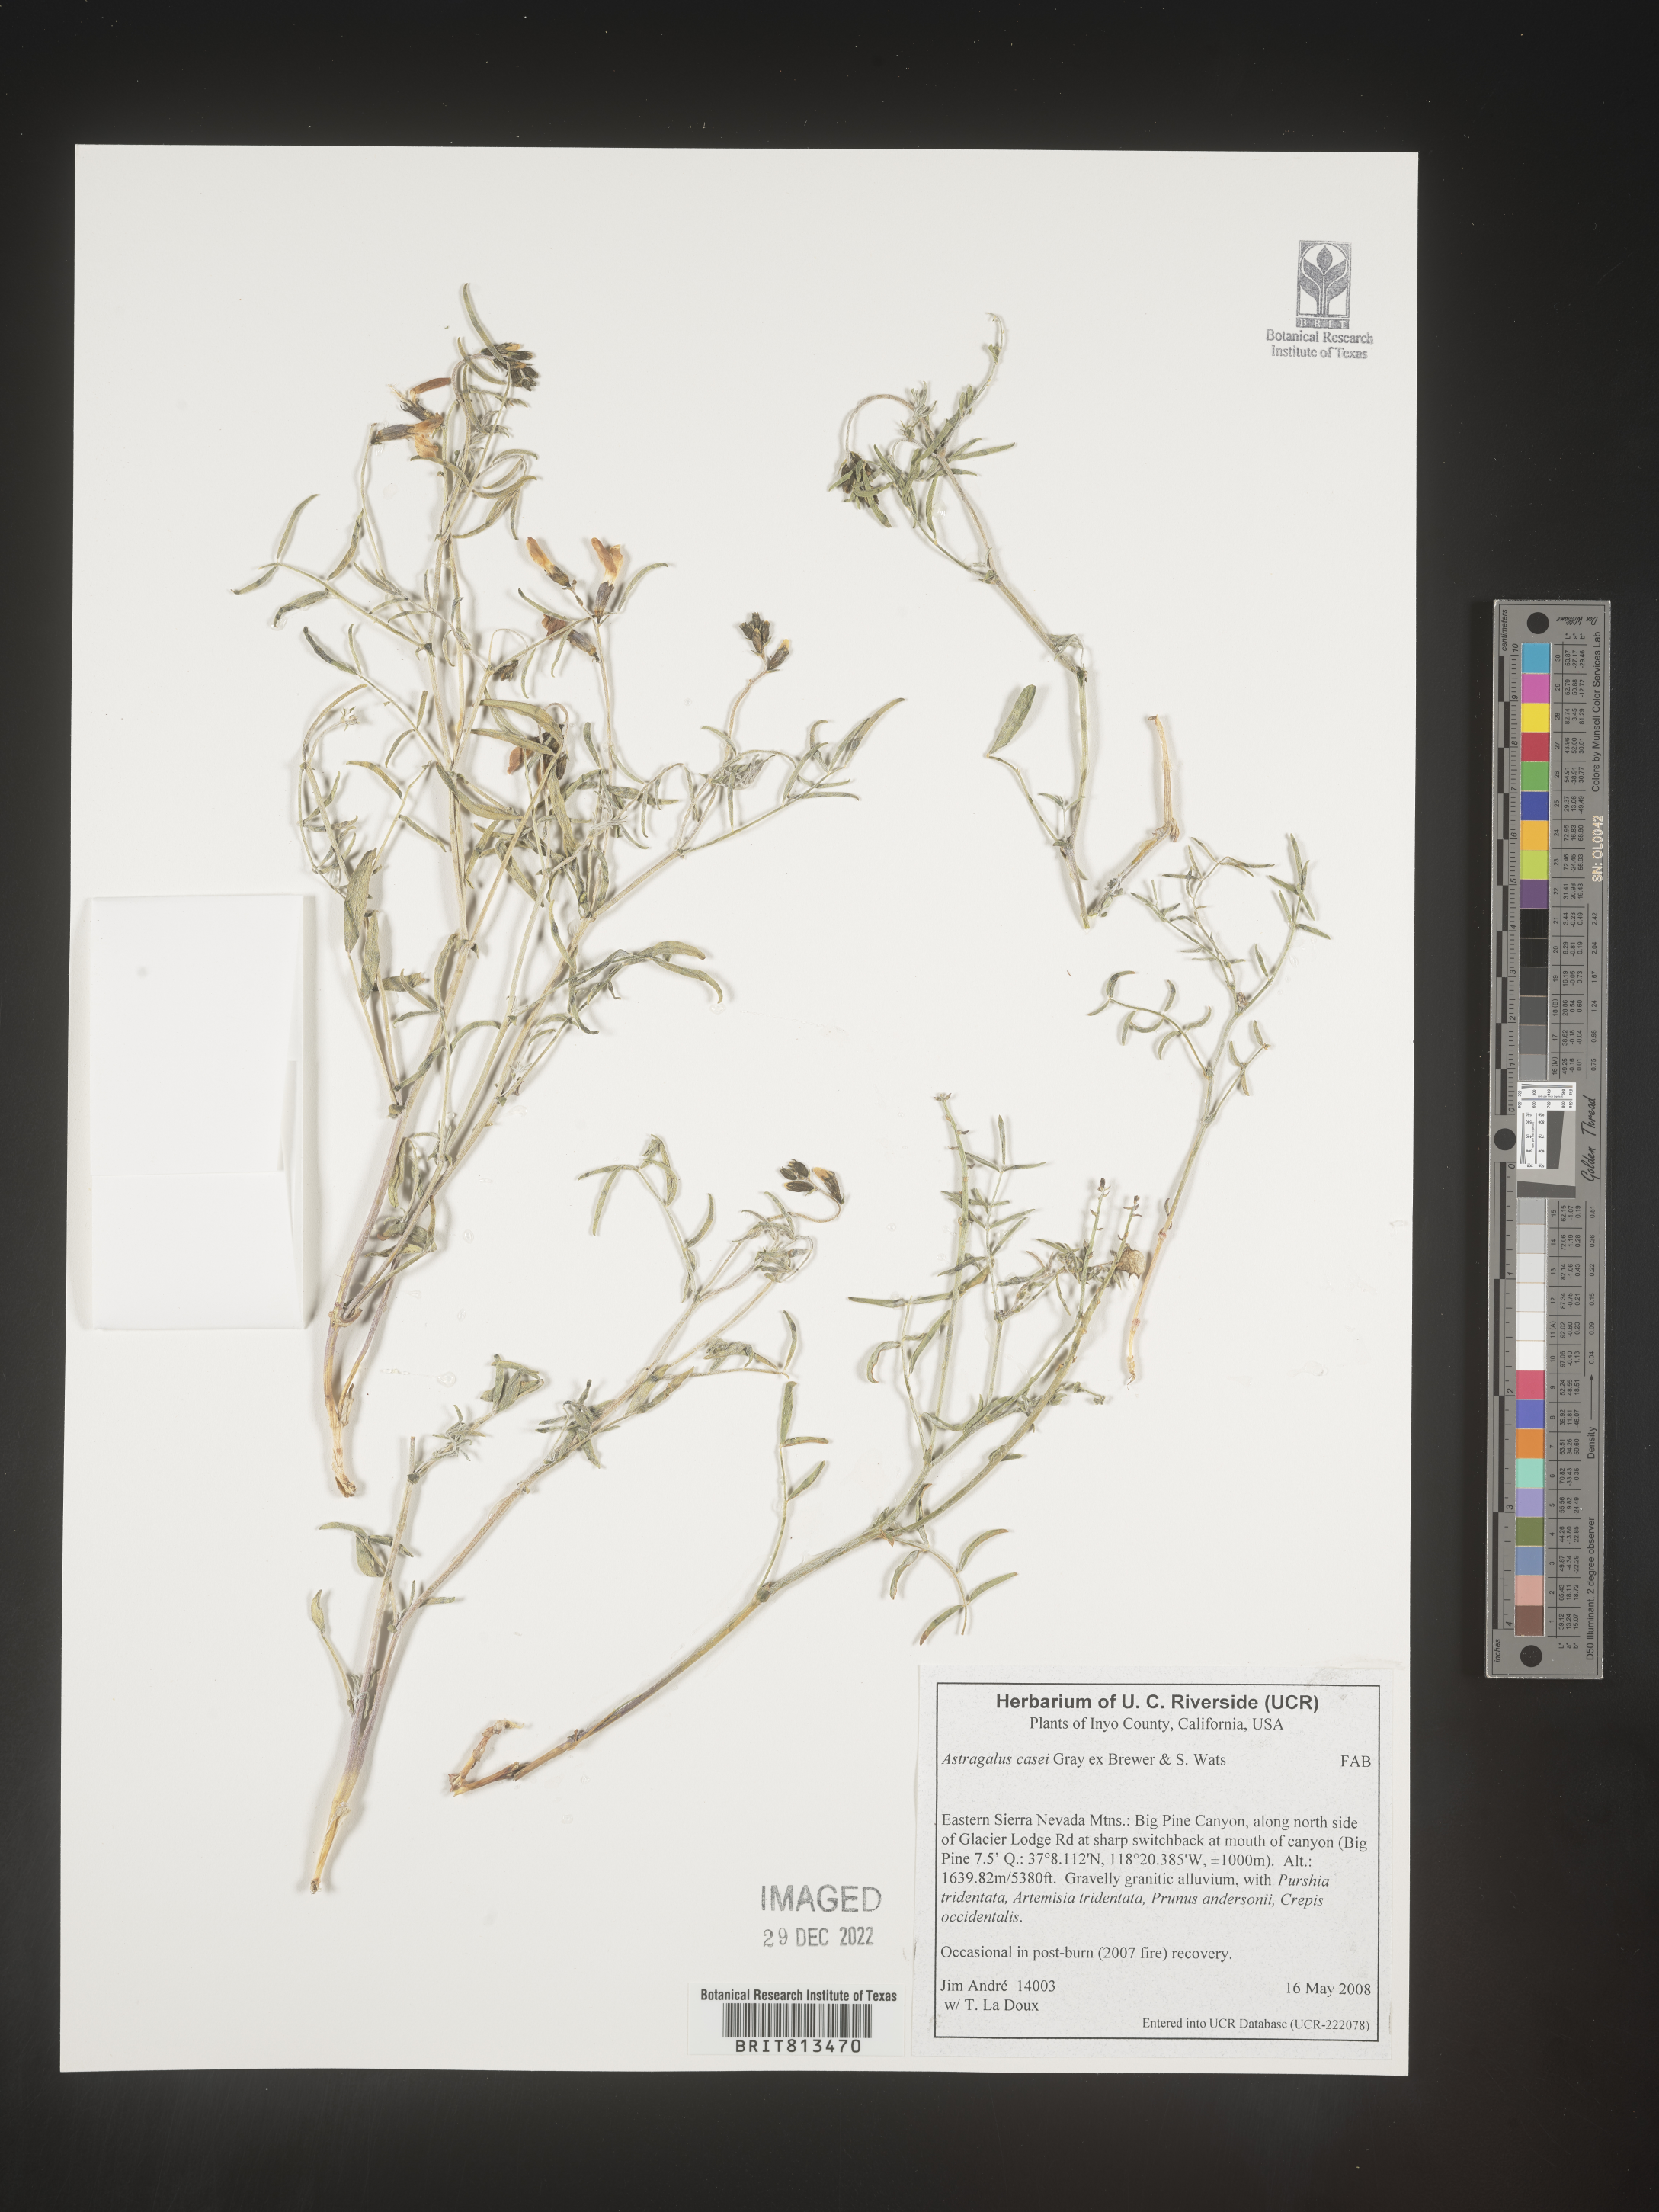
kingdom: Plantae
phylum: Tracheophyta
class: Magnoliopsida
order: Fabales
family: Fabaceae
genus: Astragalus
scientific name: Astragalus
